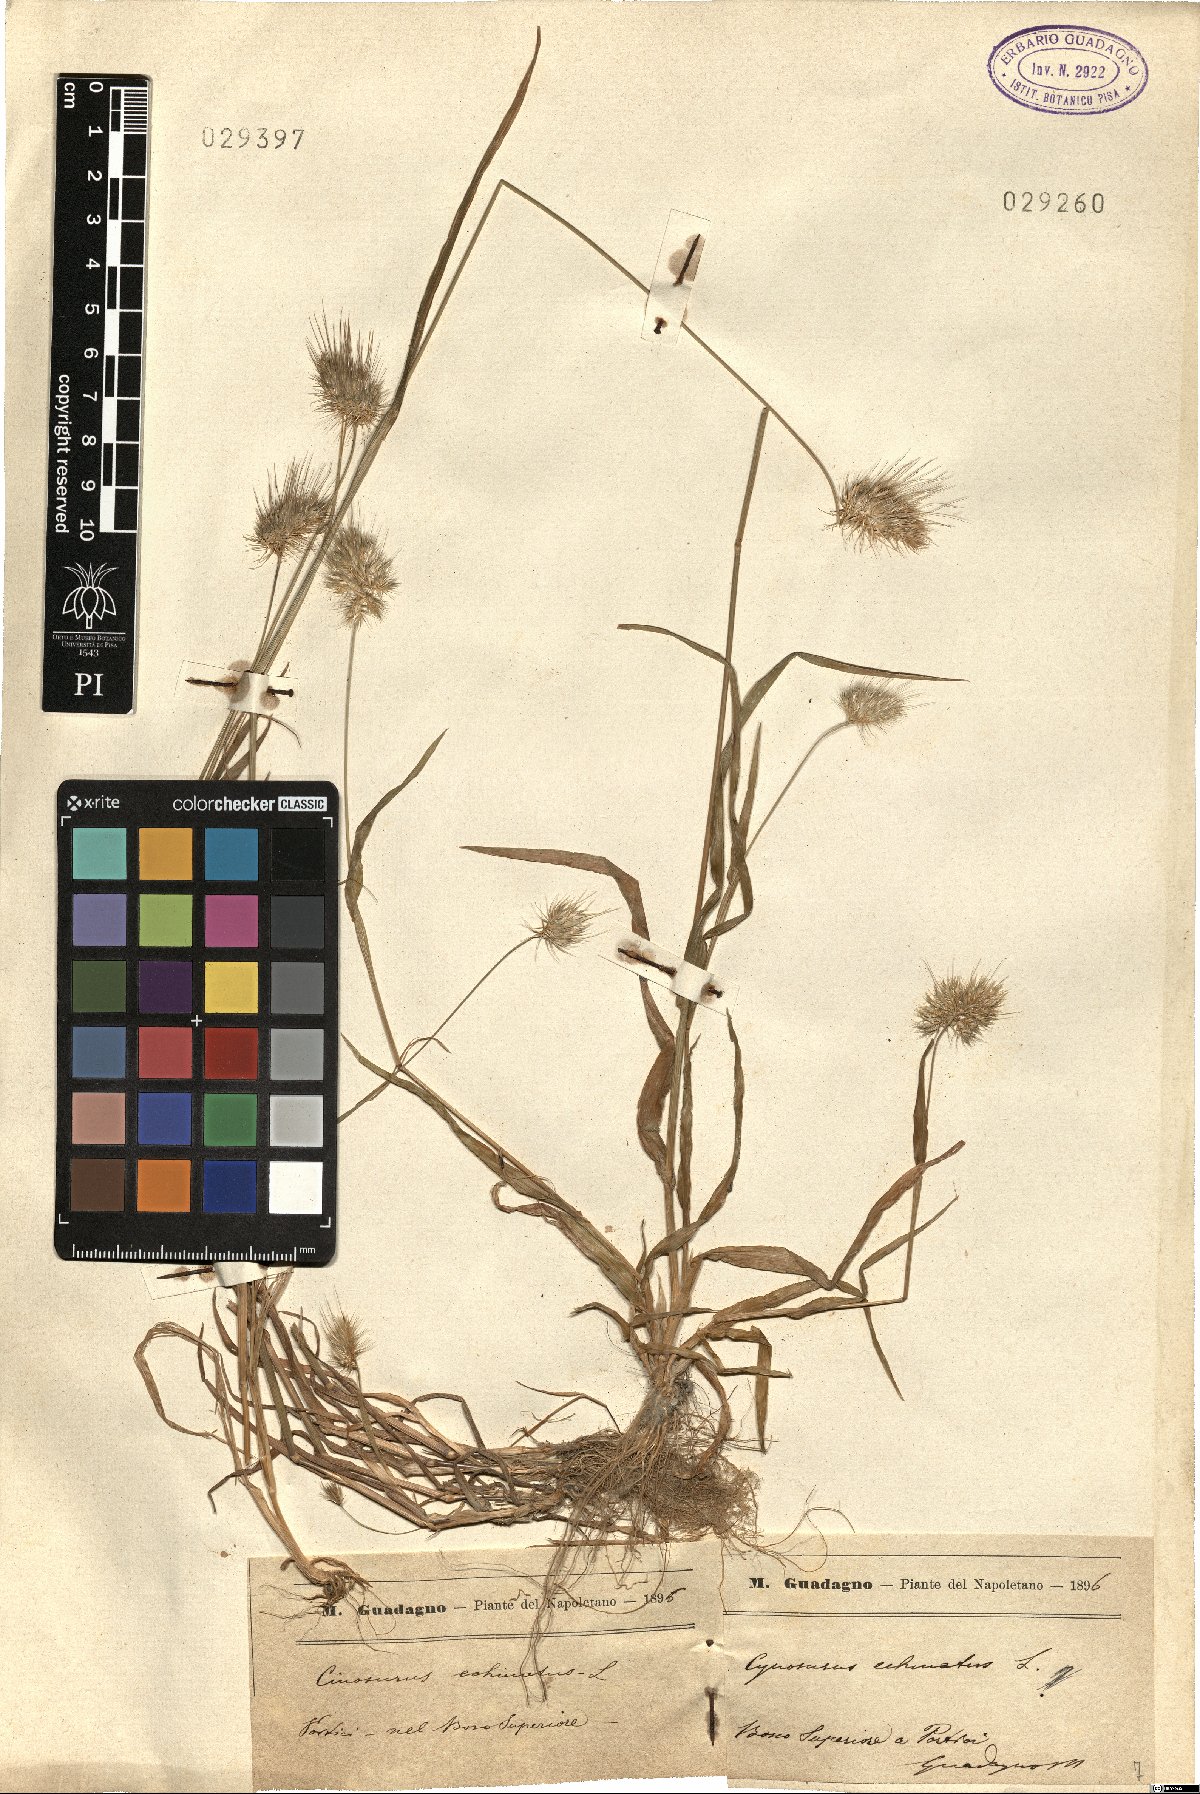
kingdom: Plantae
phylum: Tracheophyta
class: Liliopsida
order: Poales
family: Poaceae
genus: Cynosurus
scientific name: Cynosurus echinatus
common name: Rough dog's-tail
